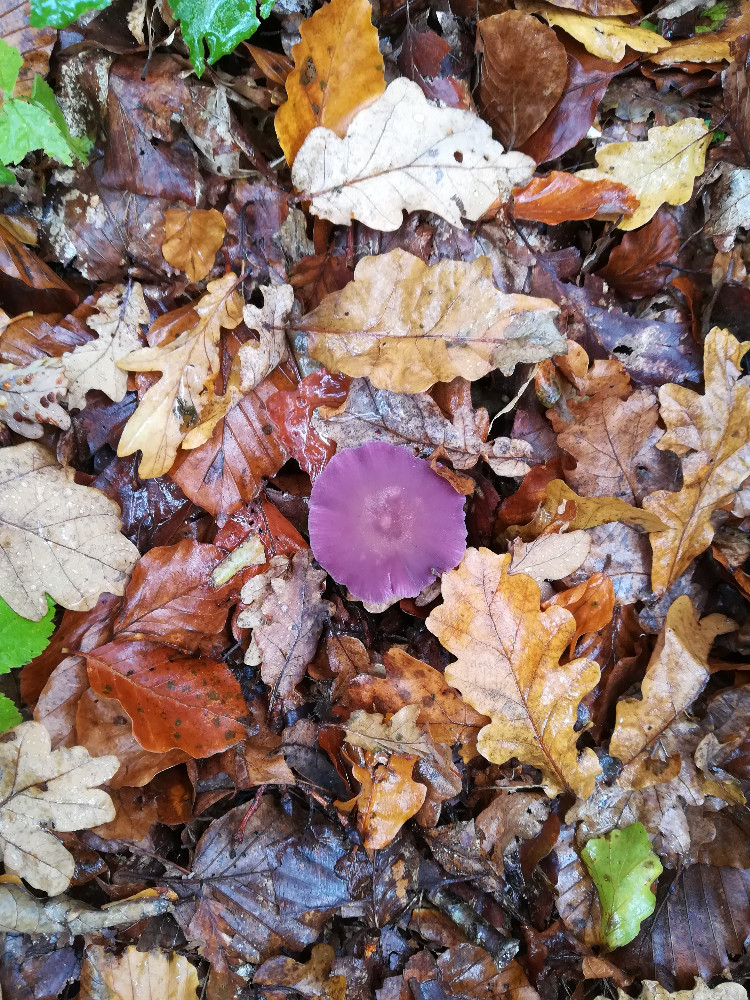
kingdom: Fungi
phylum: Basidiomycota
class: Agaricomycetes
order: Agaricales
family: Hydnangiaceae
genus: Laccaria
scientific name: Laccaria amethystina
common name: violet ametysthat
